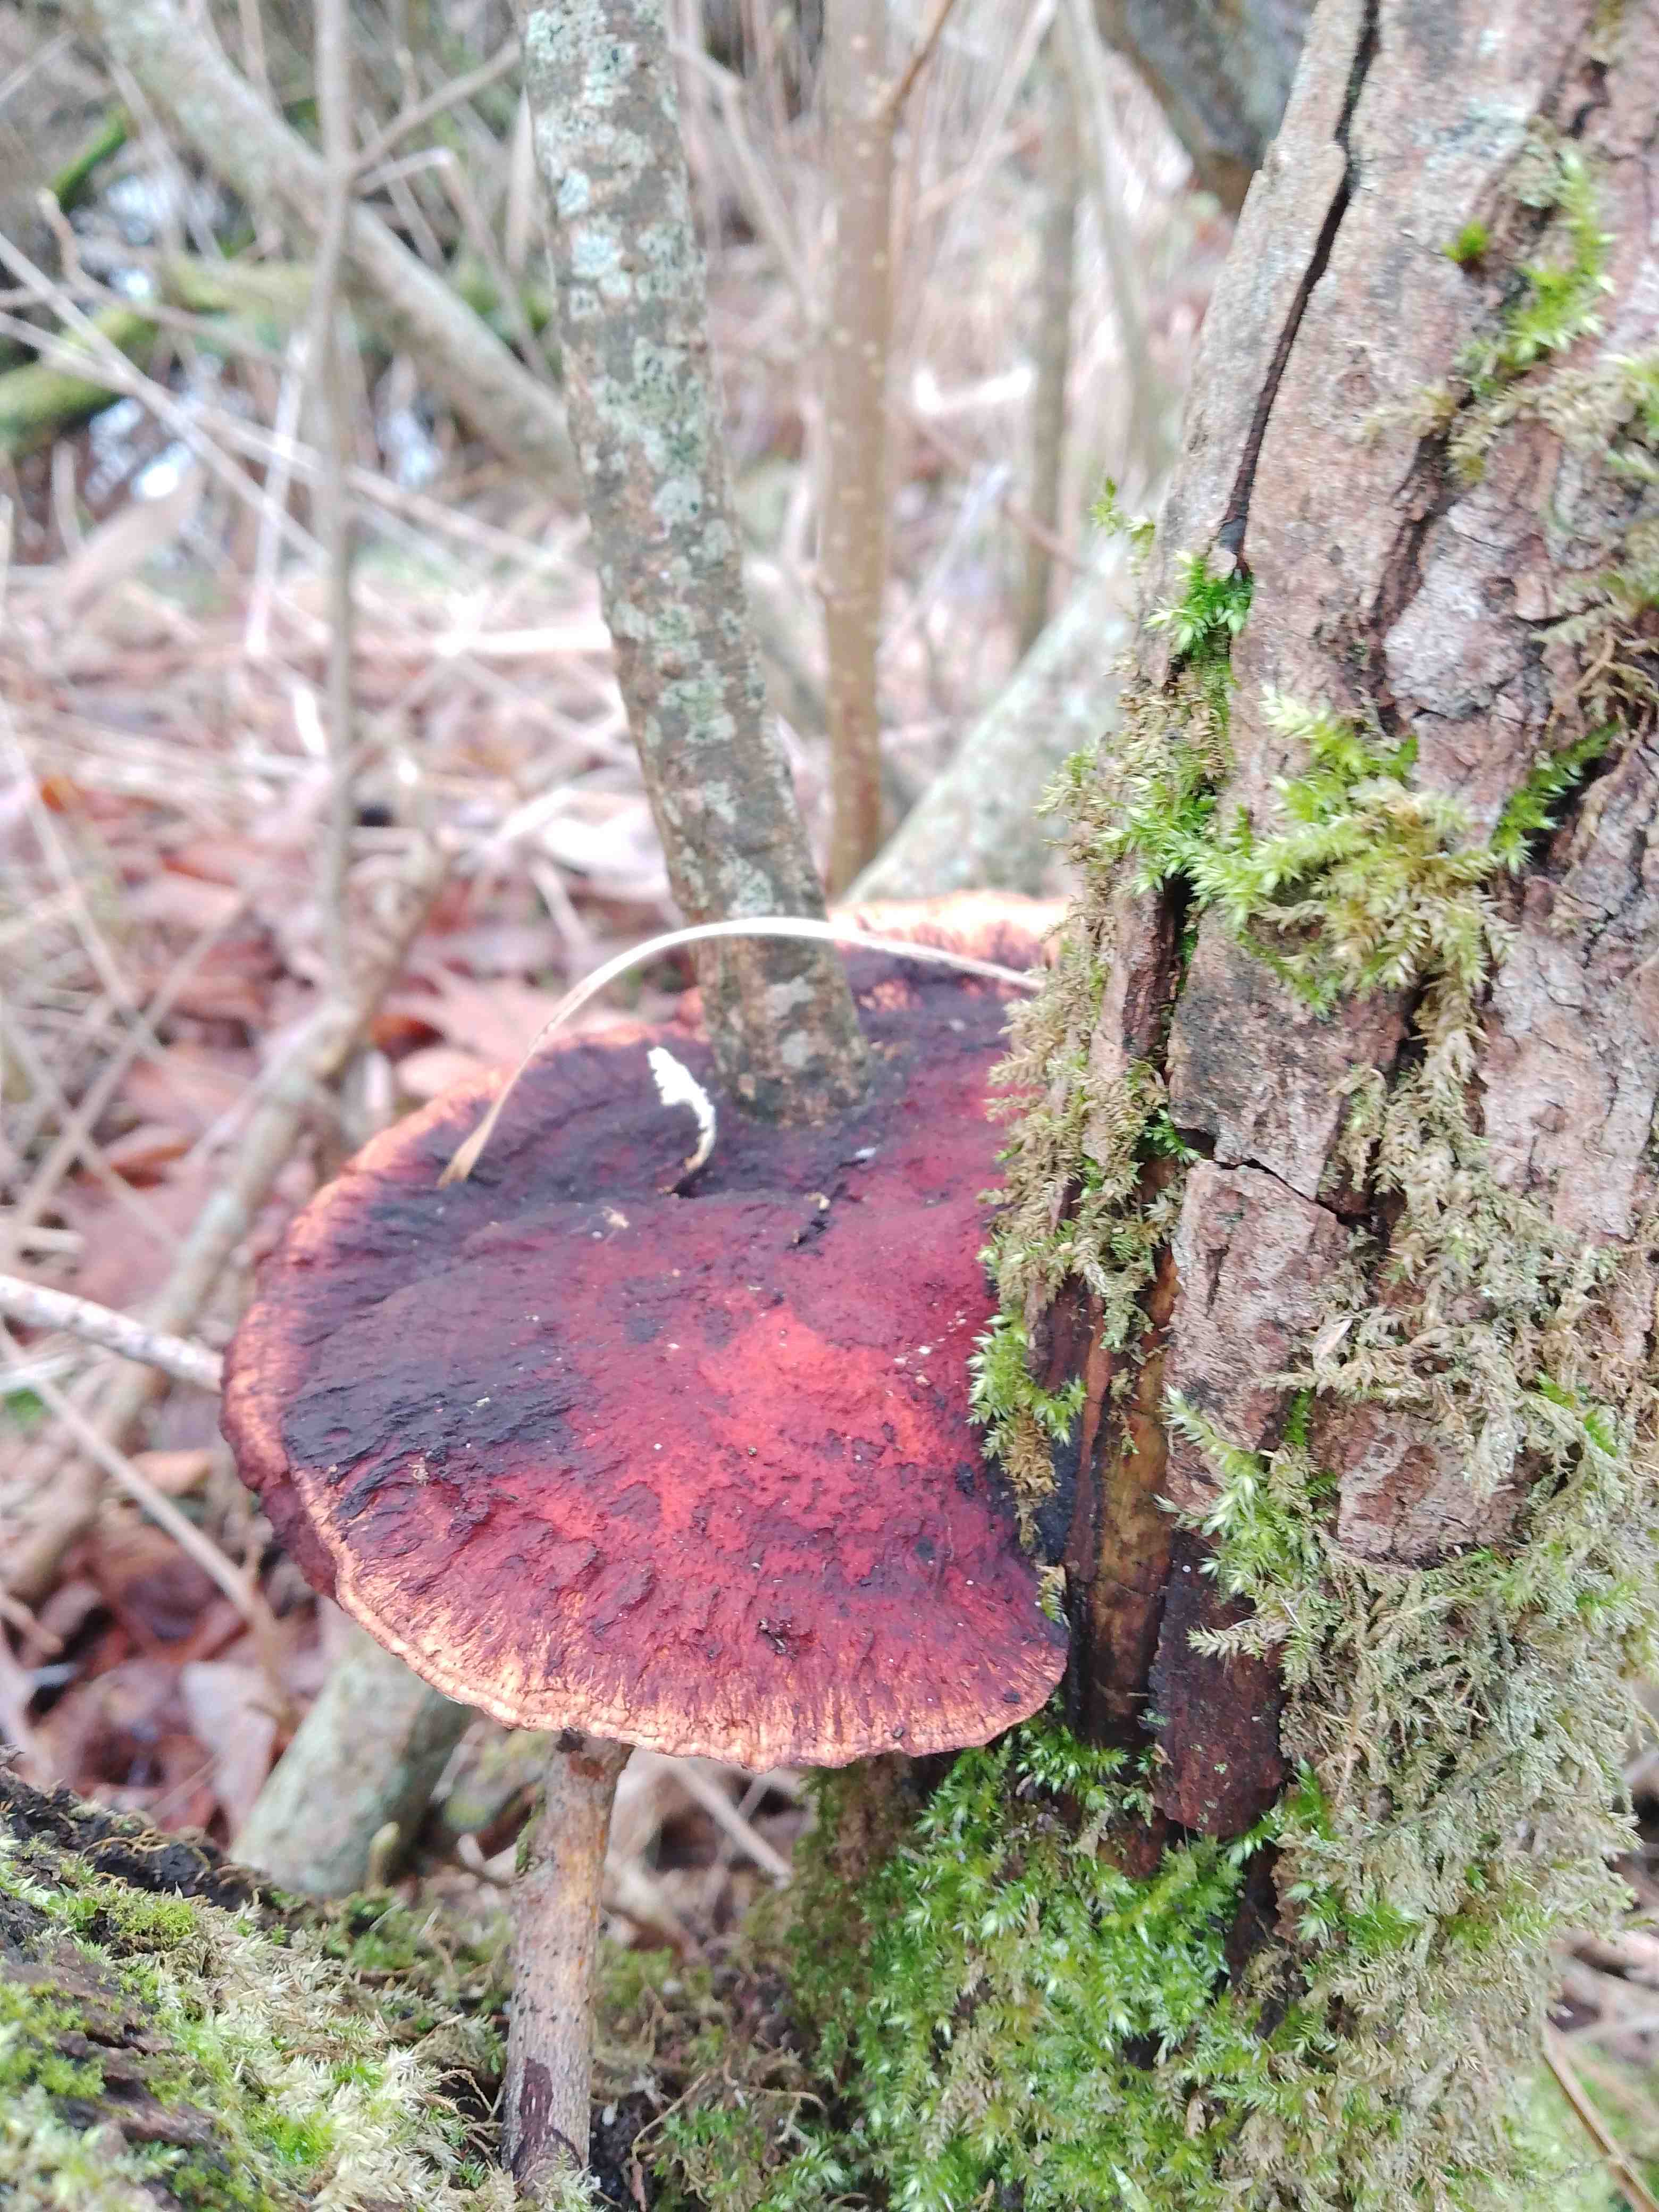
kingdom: Fungi
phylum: Basidiomycota
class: Agaricomycetes
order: Polyporales
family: Polyporaceae
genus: Daedaleopsis
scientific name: Daedaleopsis confragosa
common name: rødmende læderporesvamp
